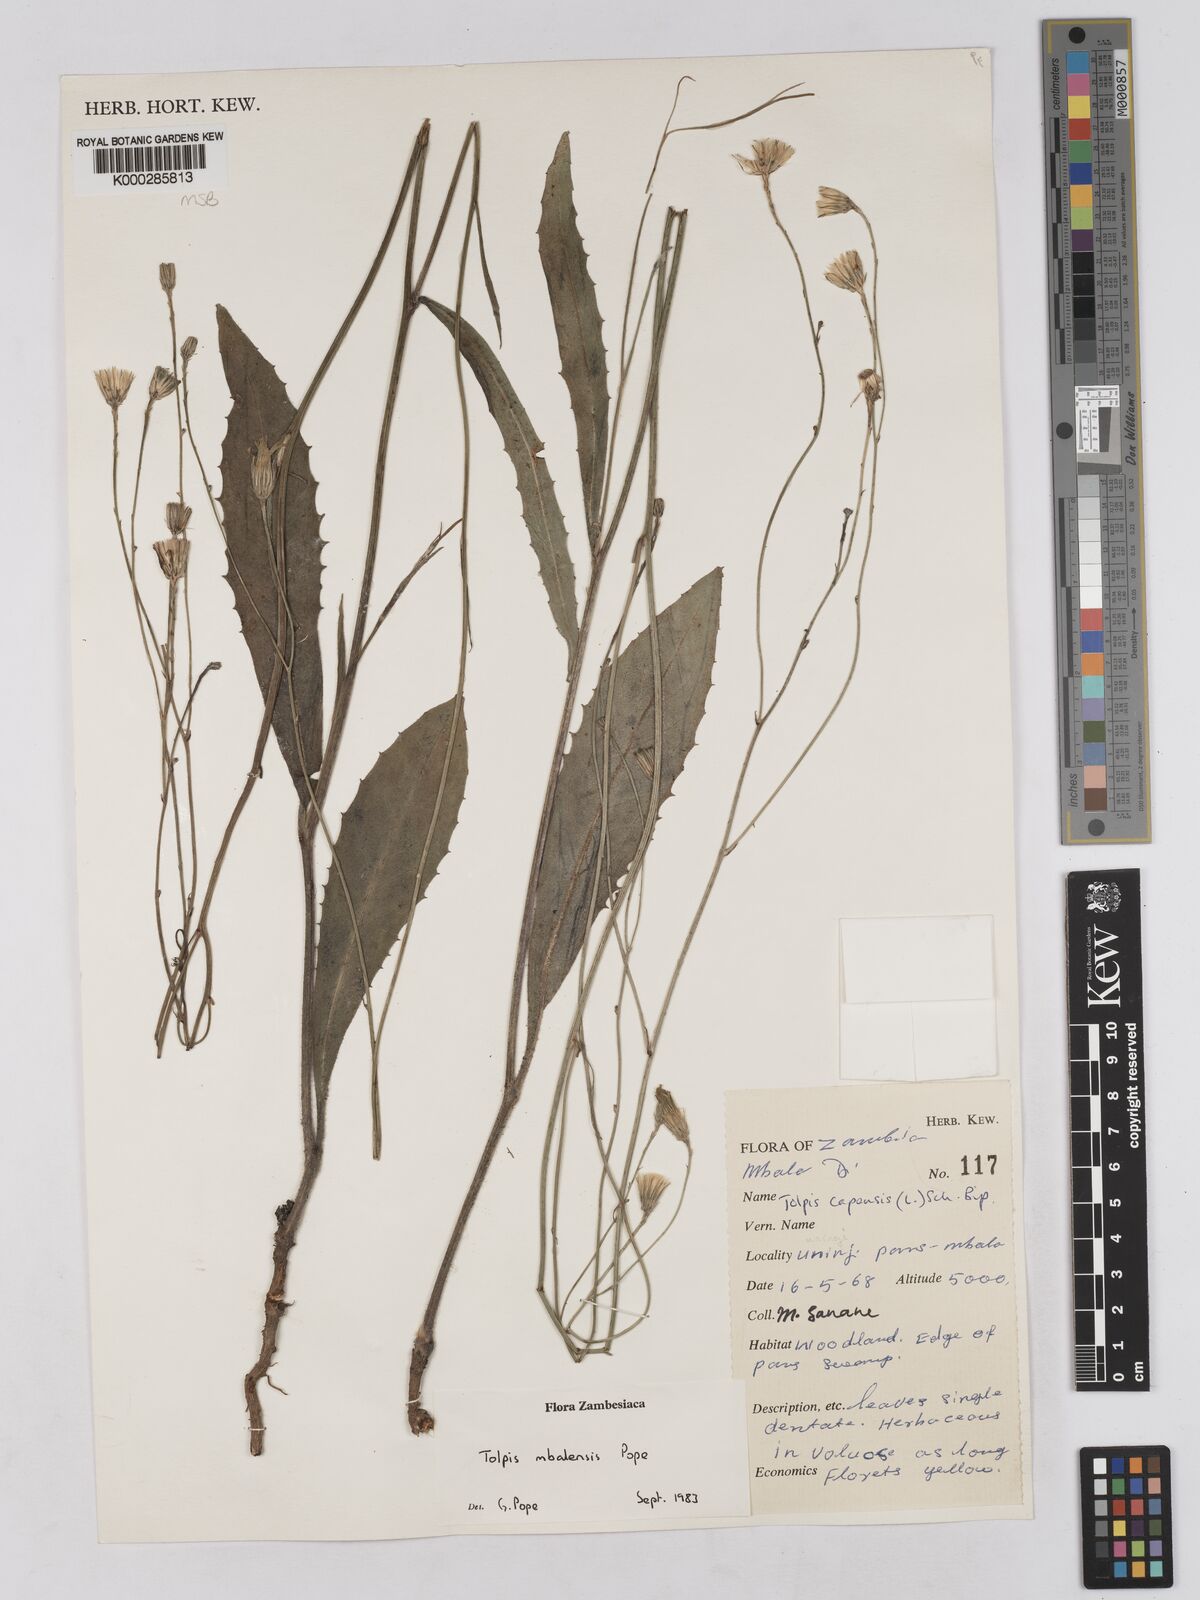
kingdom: Plantae
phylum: Tracheophyta
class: Magnoliopsida
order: Asterales
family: Asteraceae
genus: Tolpis
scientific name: Tolpis mbalensis
